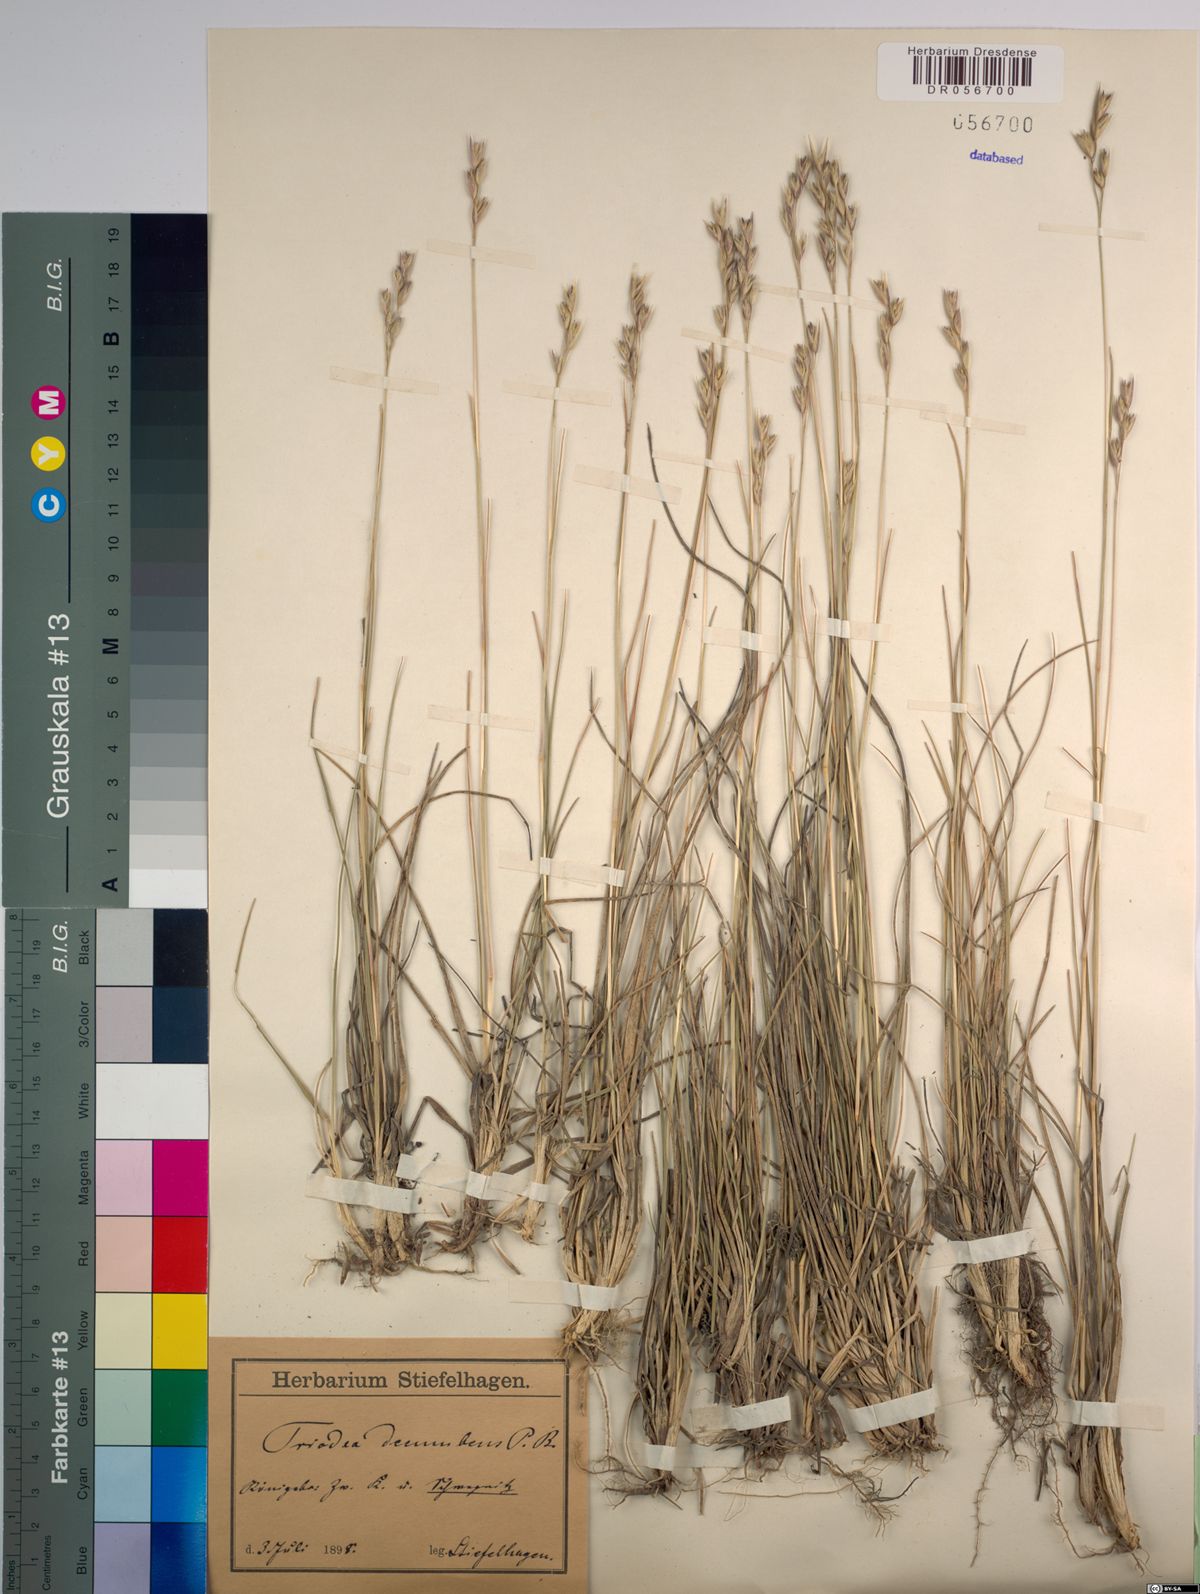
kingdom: Plantae
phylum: Tracheophyta
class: Liliopsida
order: Poales
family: Poaceae
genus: Danthonia
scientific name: Danthonia decumbens
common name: Common heathgrass
